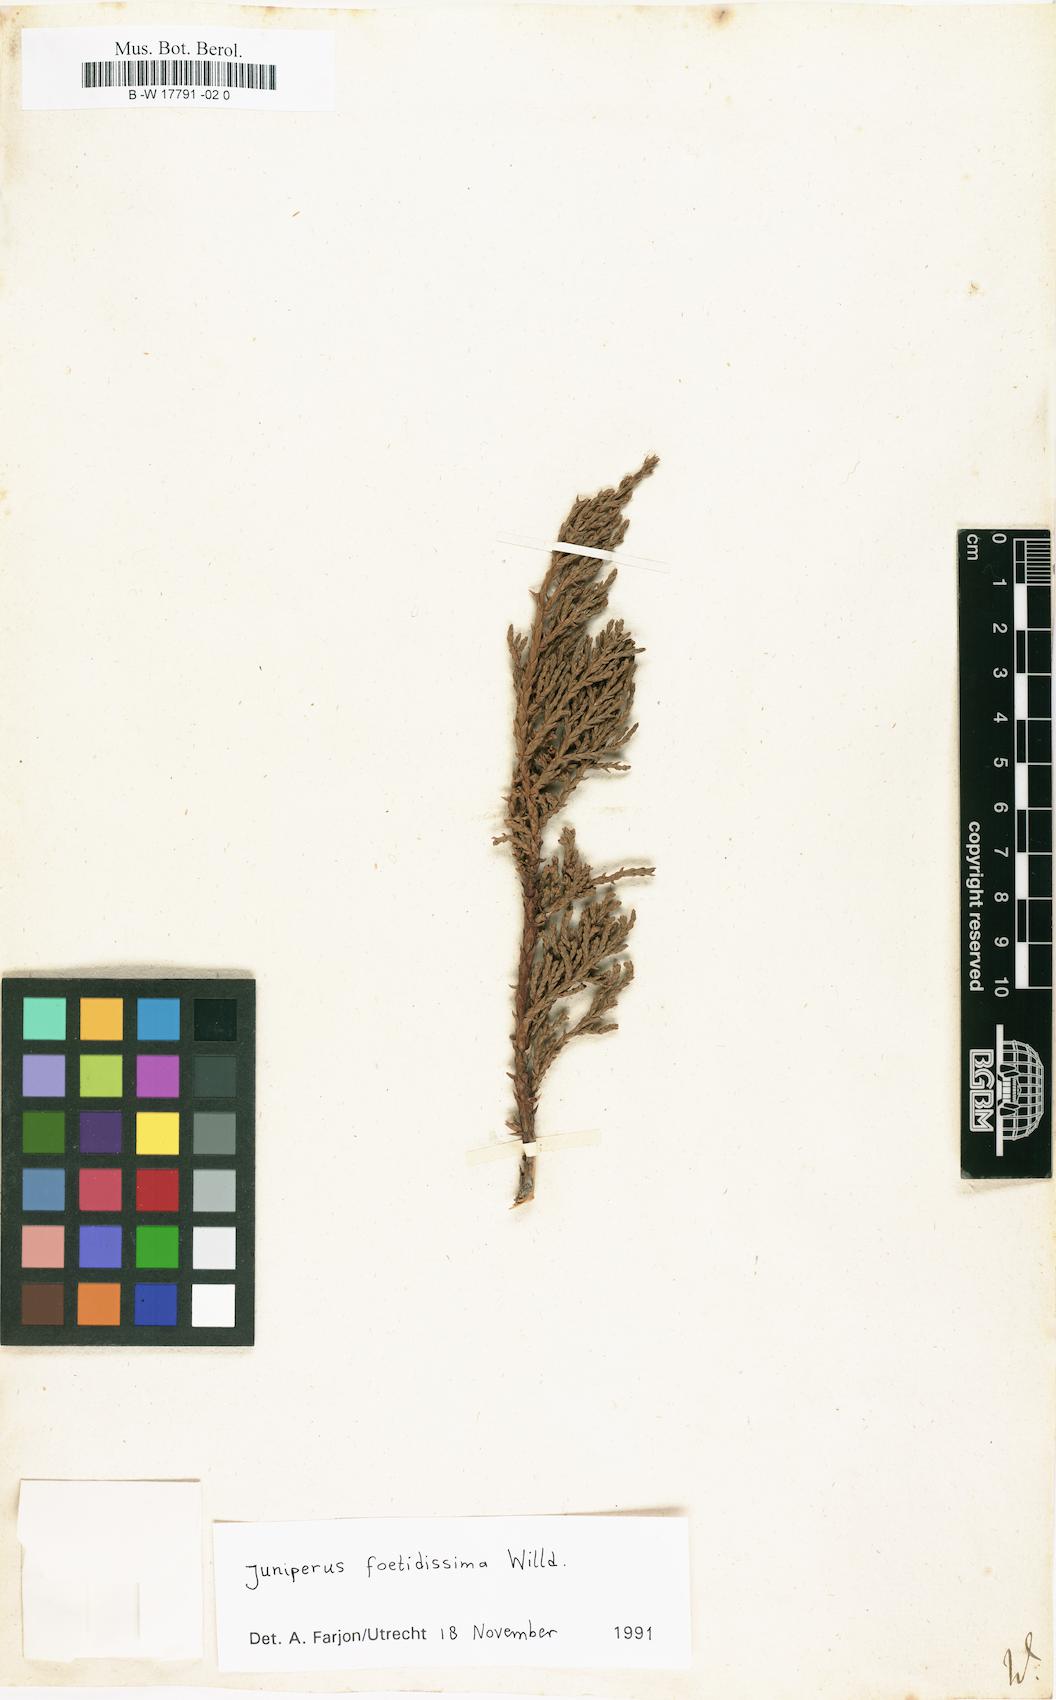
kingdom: Plantae
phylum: Tracheophyta
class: Pinopsida
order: Pinales
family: Cupressaceae
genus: Cupressus
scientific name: Cupressus
